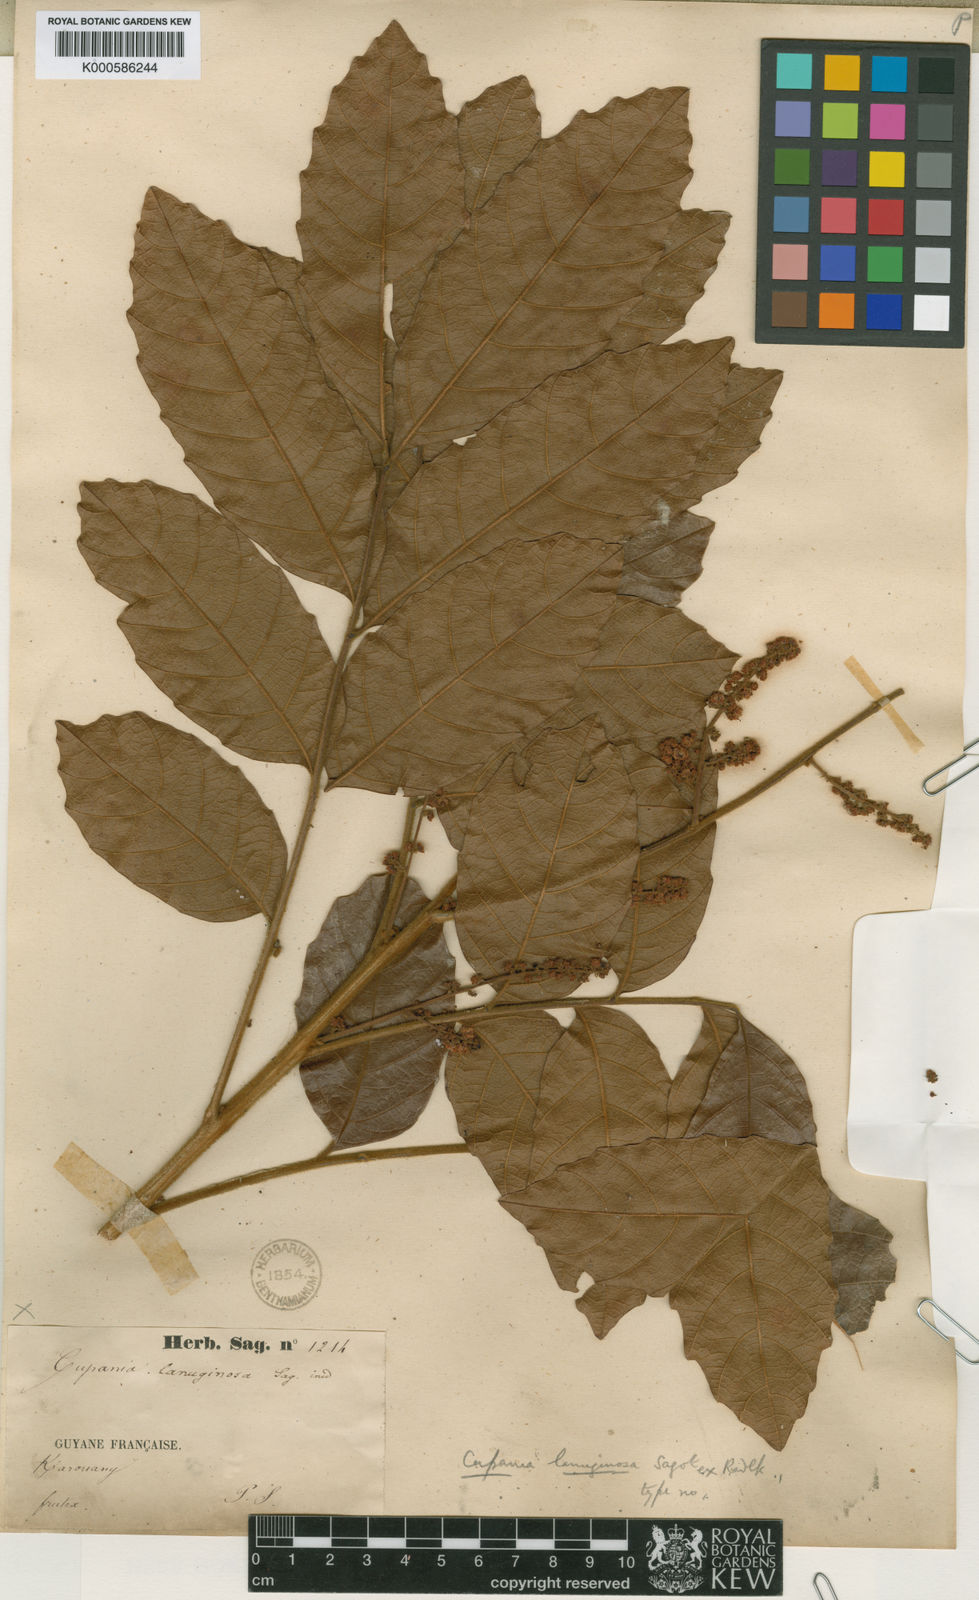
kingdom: Plantae
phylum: Tracheophyta
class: Magnoliopsida
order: Sapindales
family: Sapindaceae
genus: Cupania
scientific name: Cupania hirsuta
